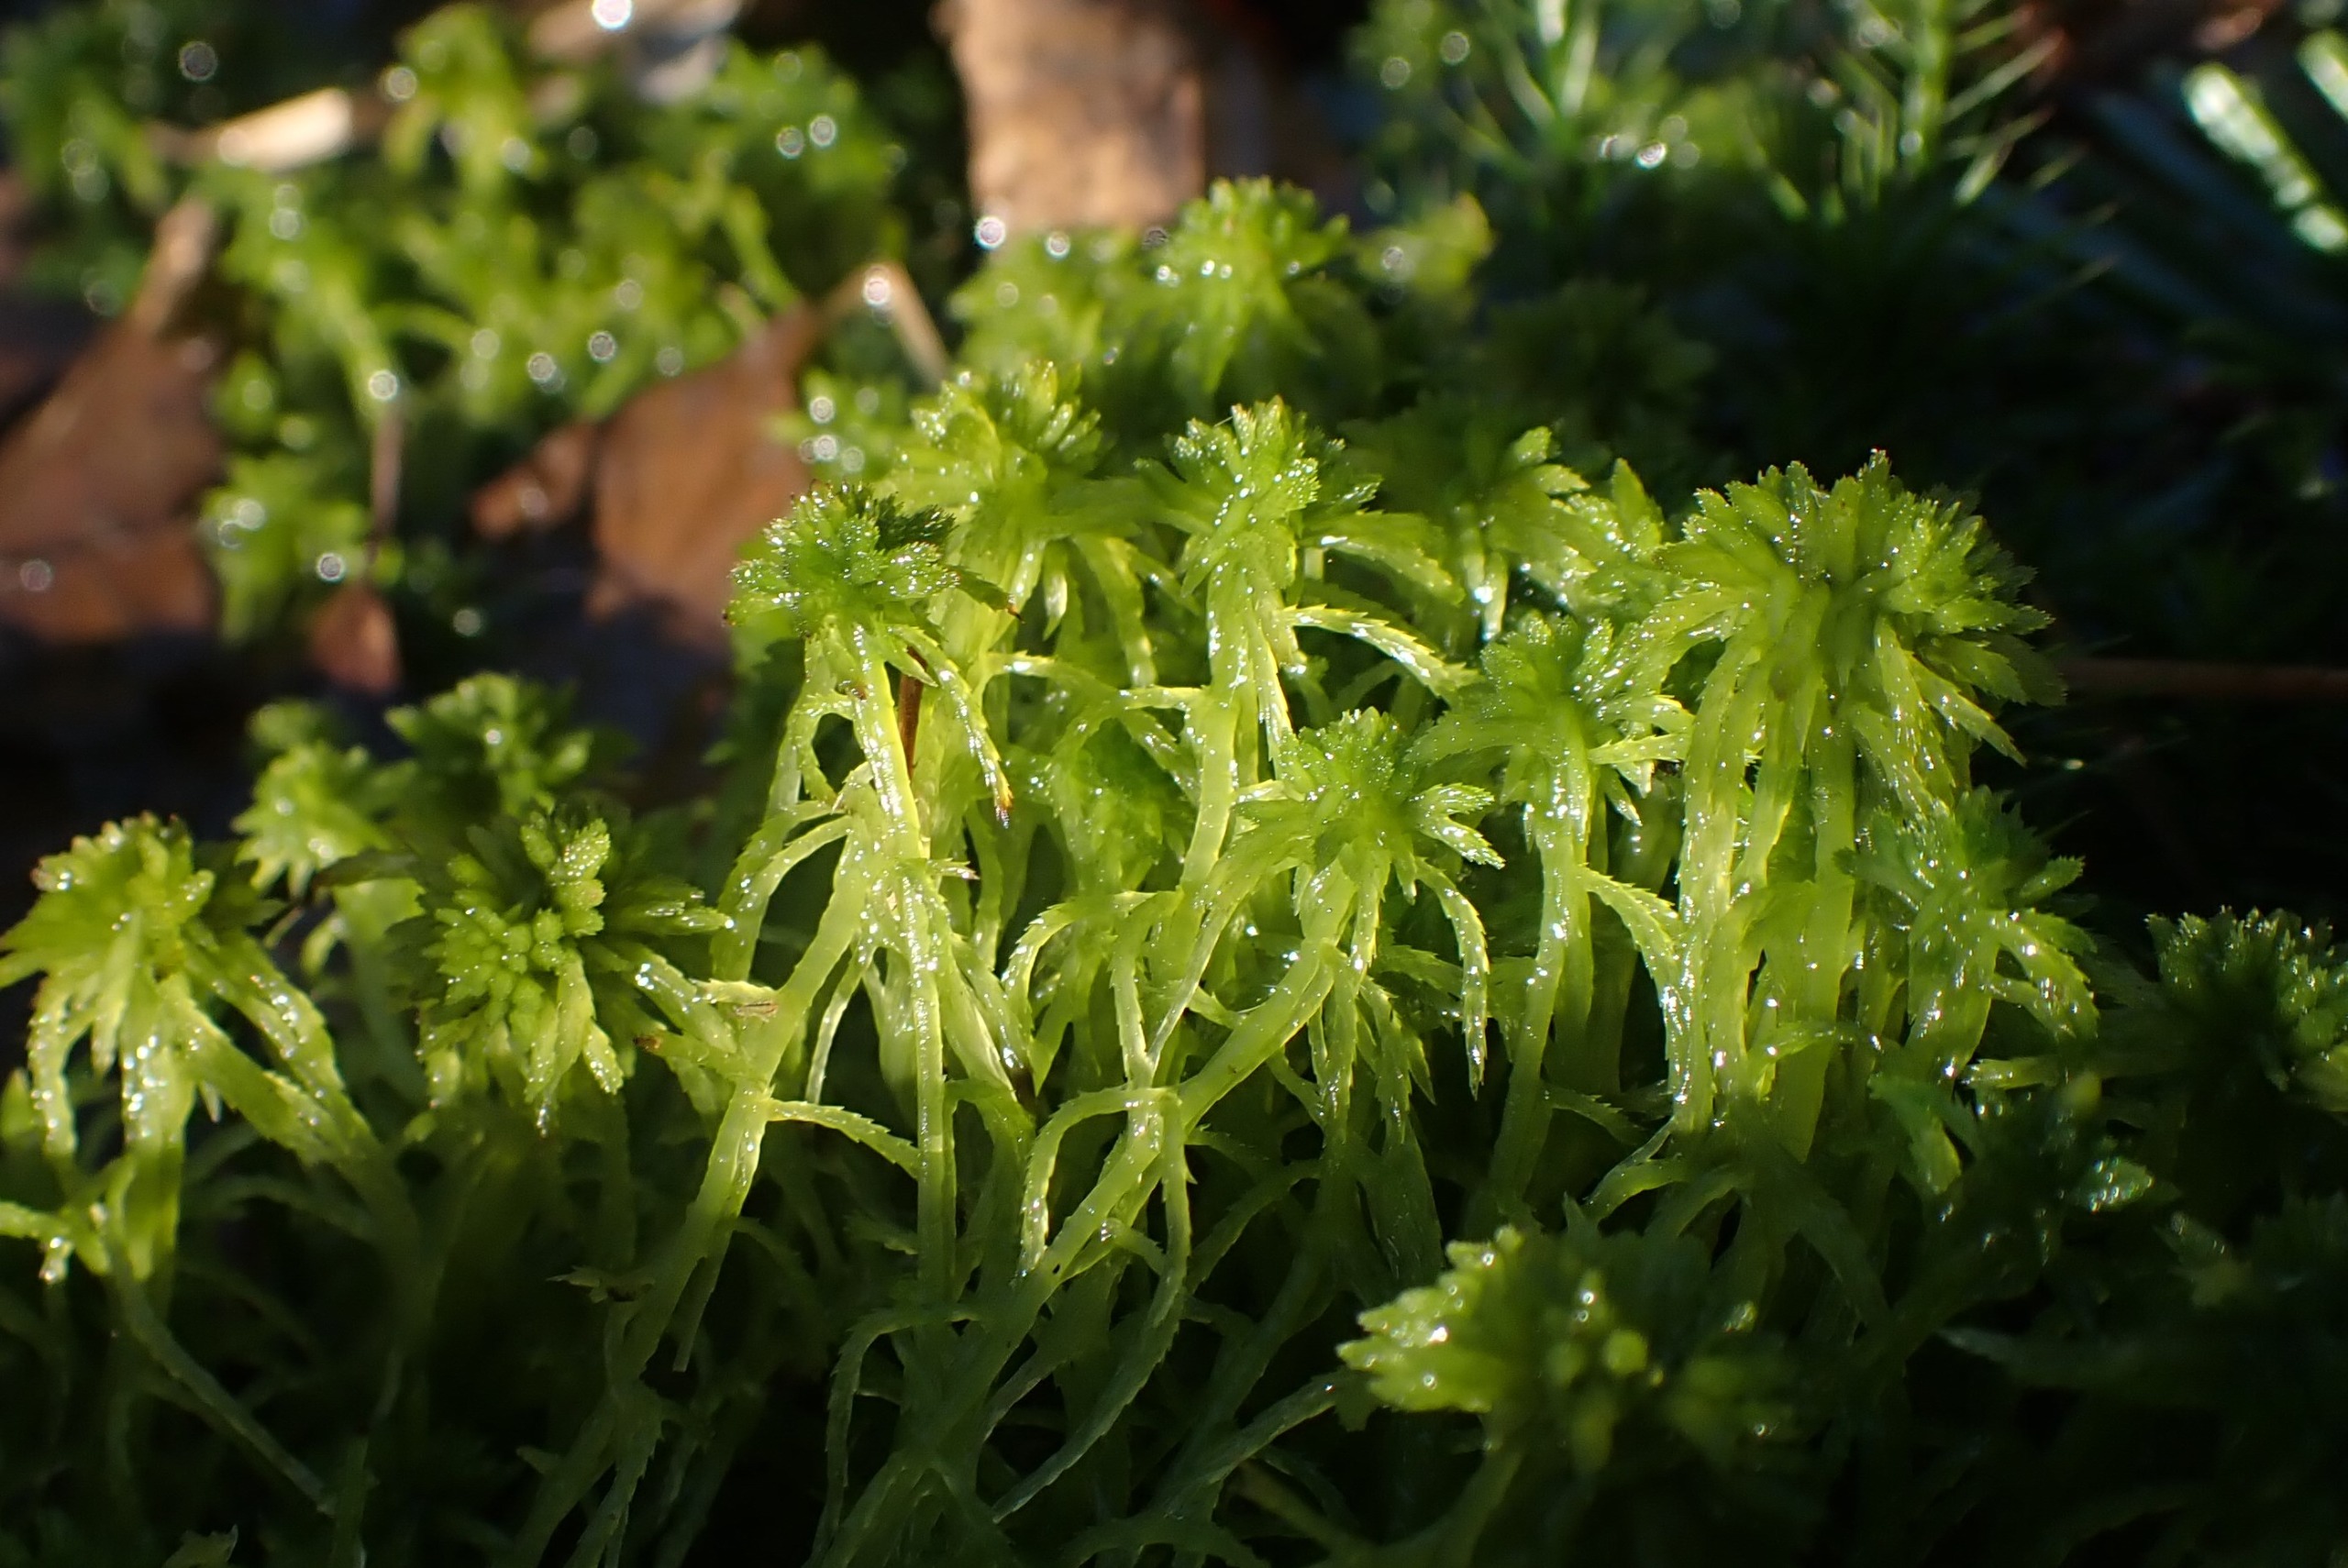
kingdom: Plantae
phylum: Bryophyta
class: Sphagnopsida
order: Sphagnales
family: Sphagnaceae
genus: Sphagnum
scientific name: Sphagnum
